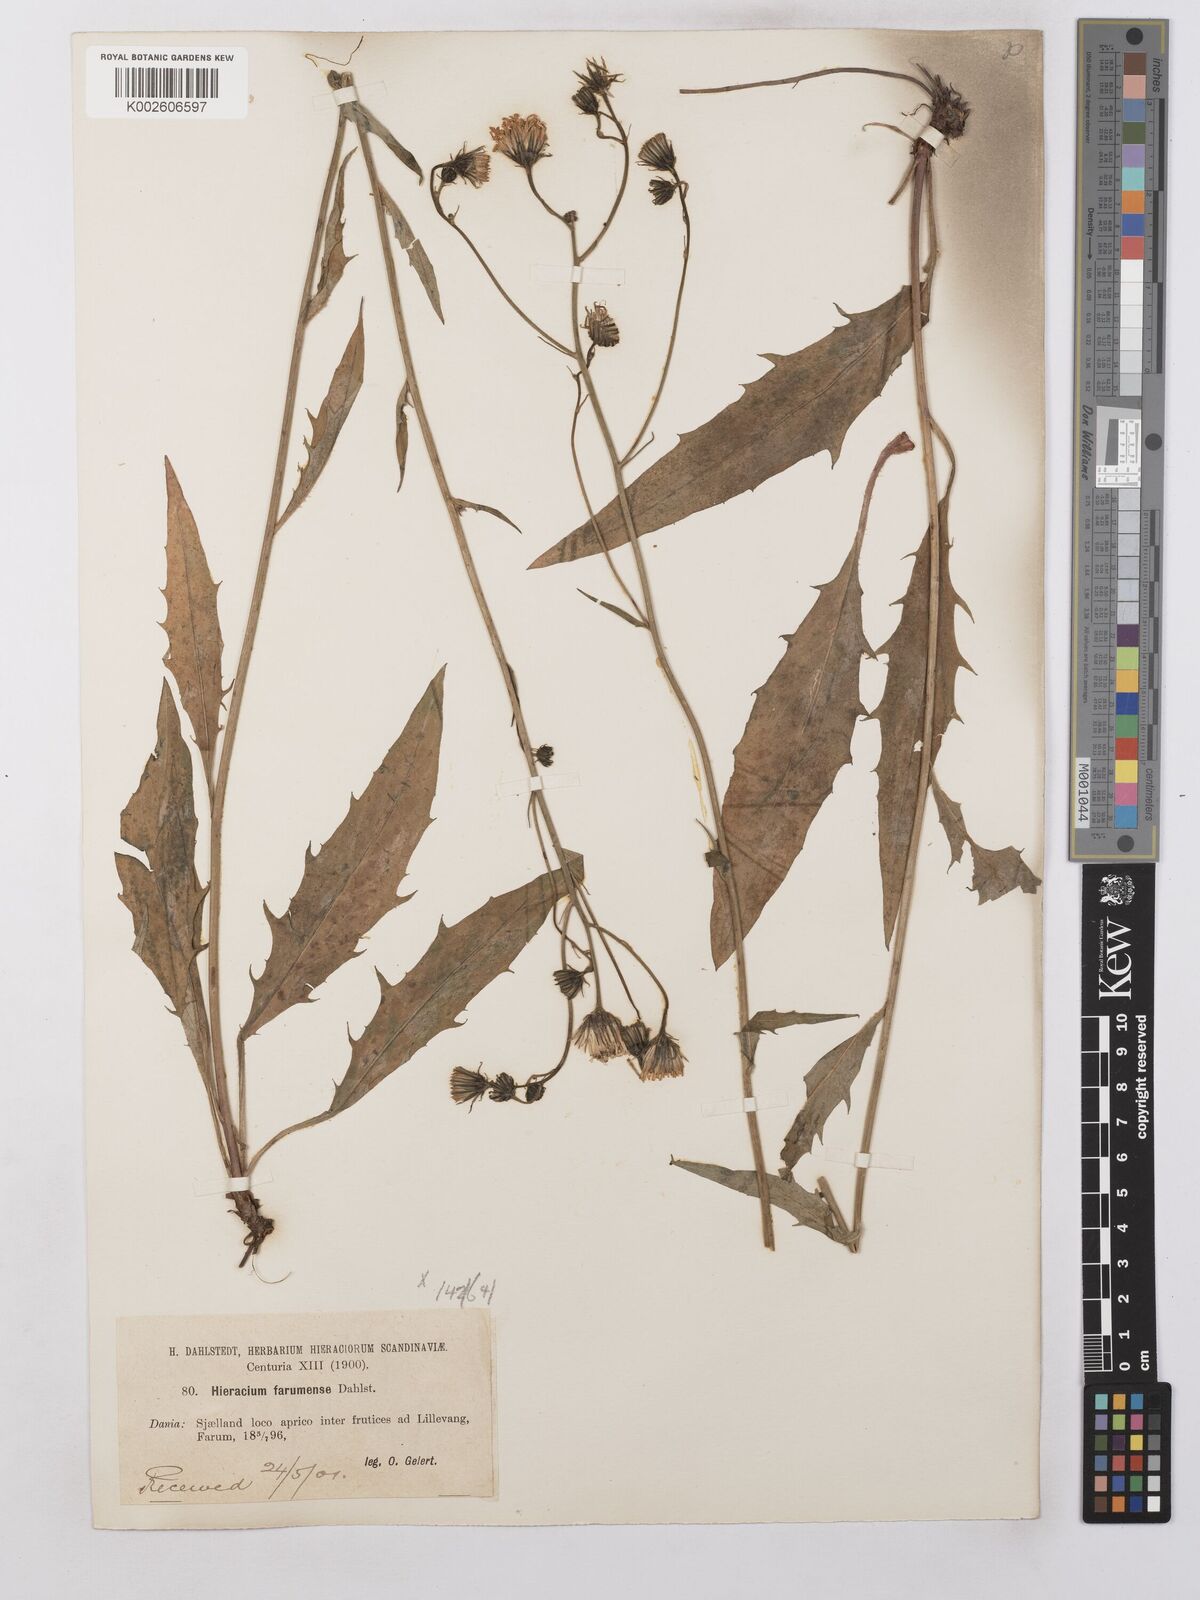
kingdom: Plantae
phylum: Tracheophyta
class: Magnoliopsida
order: Asterales
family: Asteraceae
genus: Hieracium
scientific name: Hieracium lachenalii
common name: Common hawkweed
